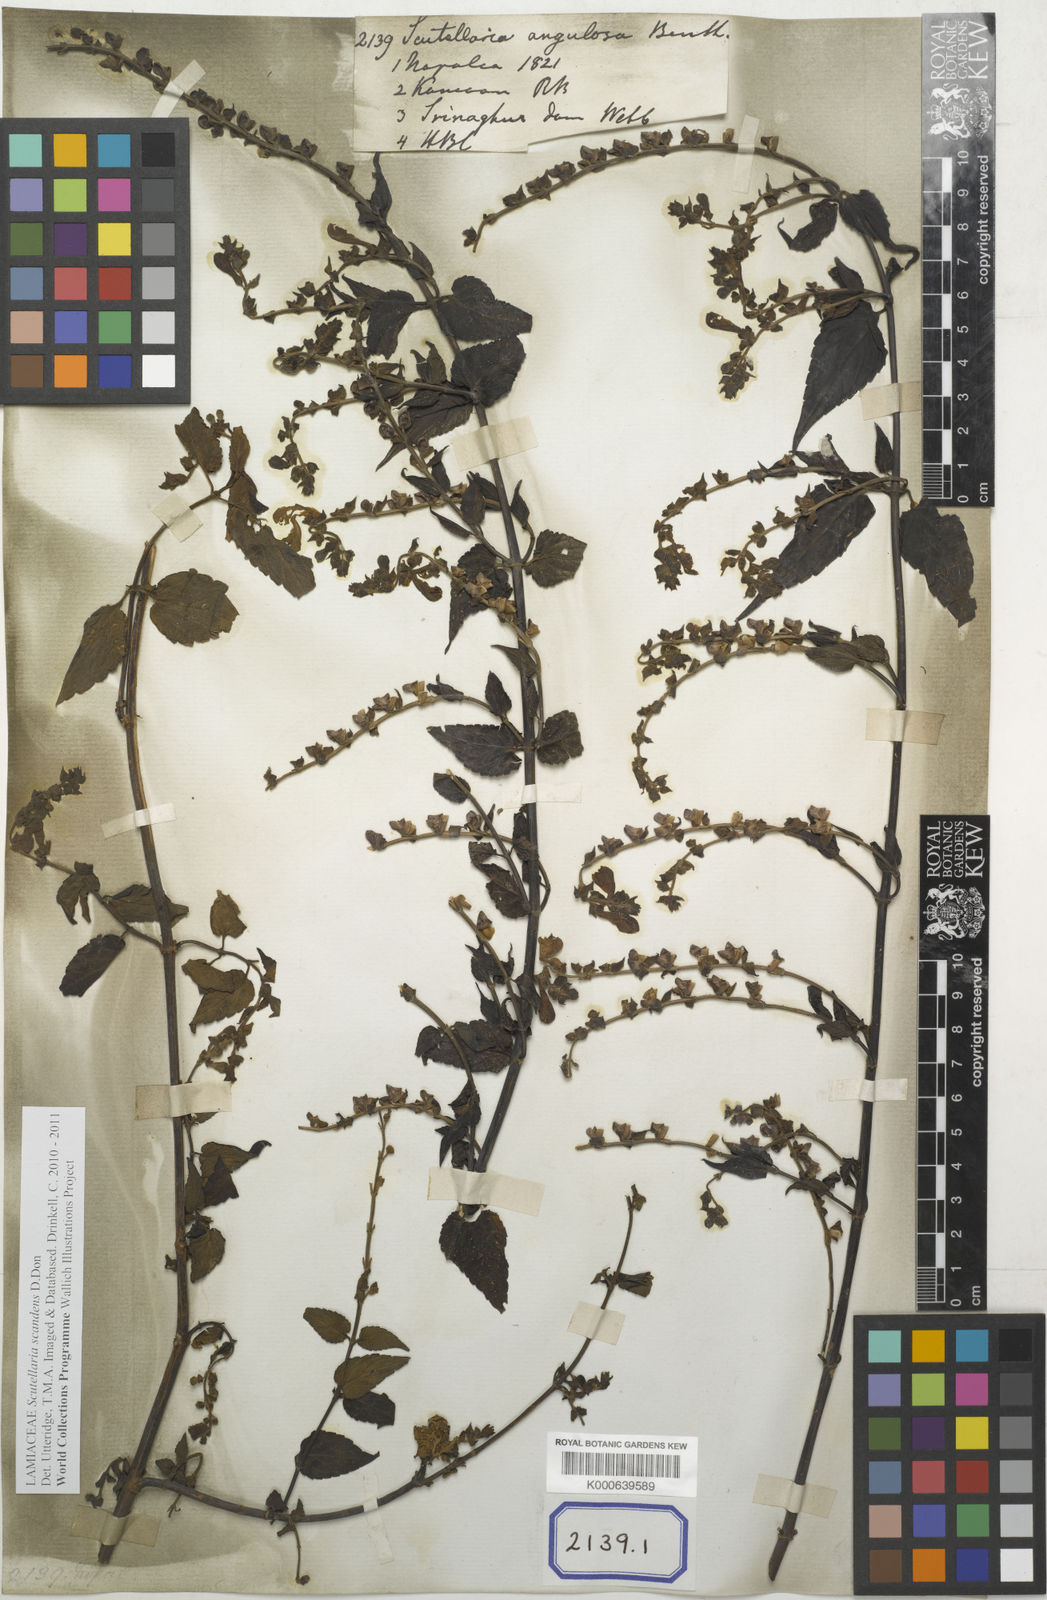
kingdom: Plantae
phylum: Tracheophyta
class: Magnoliopsida
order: Lamiales
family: Lamiaceae
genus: Scutellaria
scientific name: Scutellaria scandens
